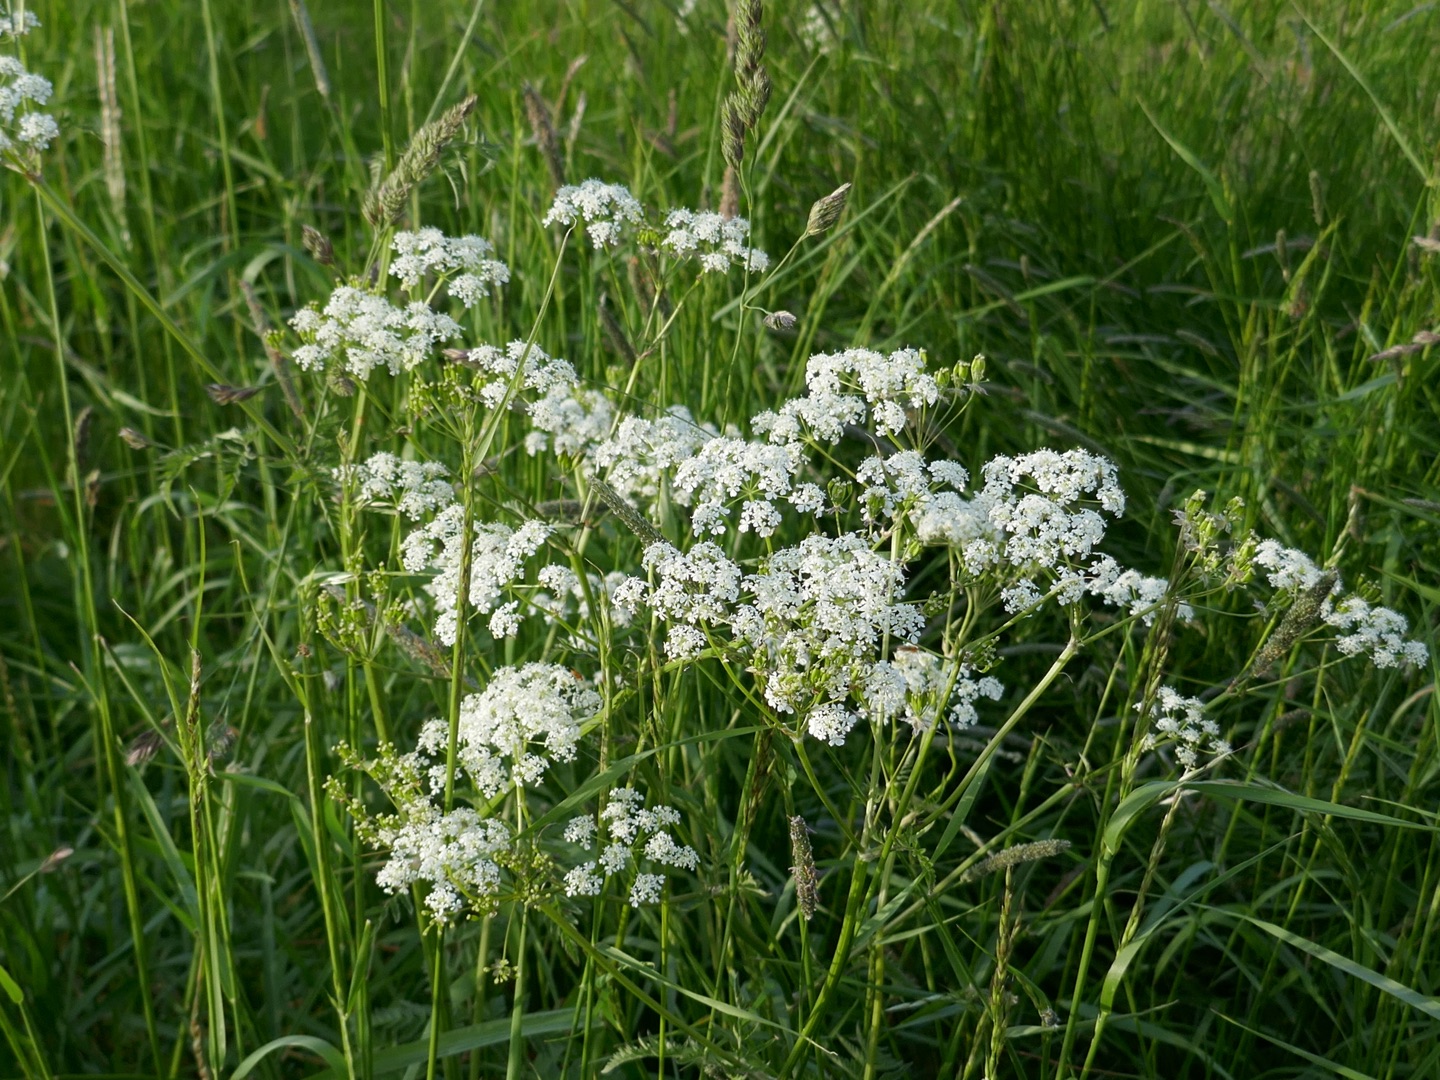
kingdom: Plantae
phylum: Tracheophyta
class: Magnoliopsida
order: Apiales
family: Apiaceae
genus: Anthriscus
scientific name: Anthriscus sylvestris
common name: Vild kørvel
